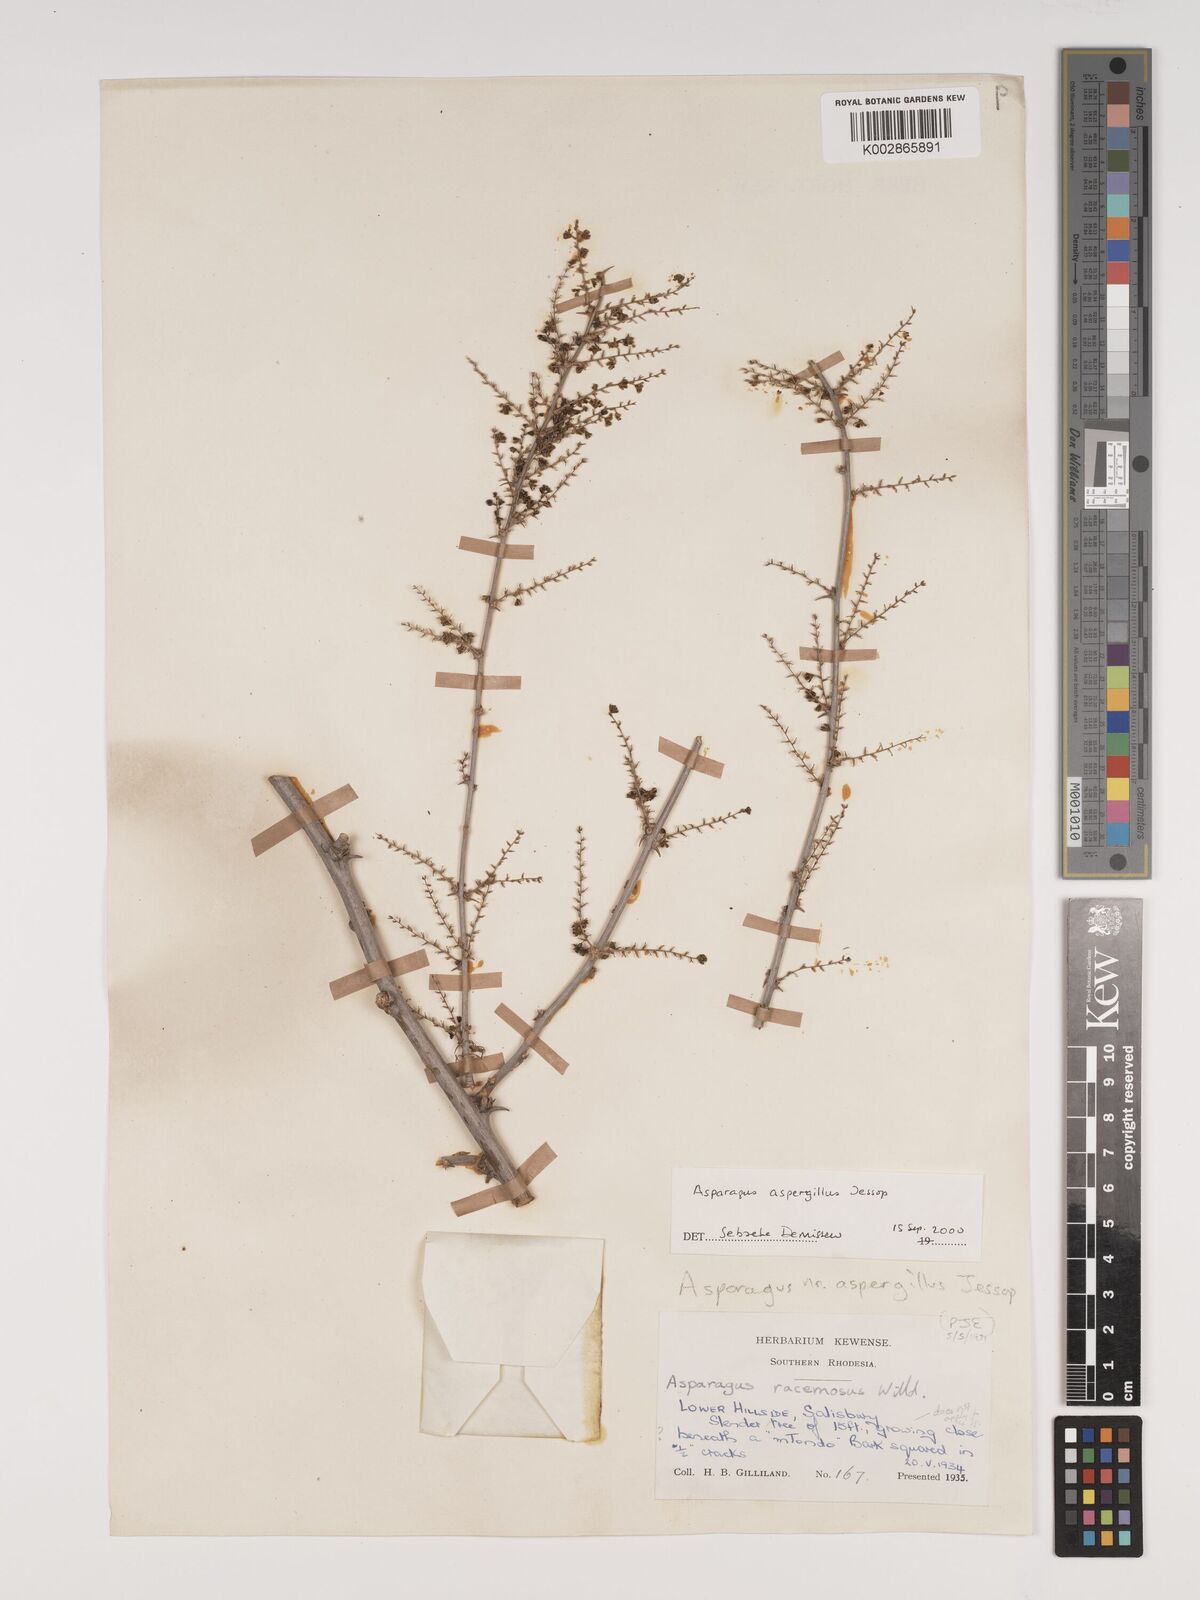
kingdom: Plantae
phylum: Tracheophyta
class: Liliopsida
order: Asparagales
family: Asparagaceae
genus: Asparagus
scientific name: Asparagus aspergillus
